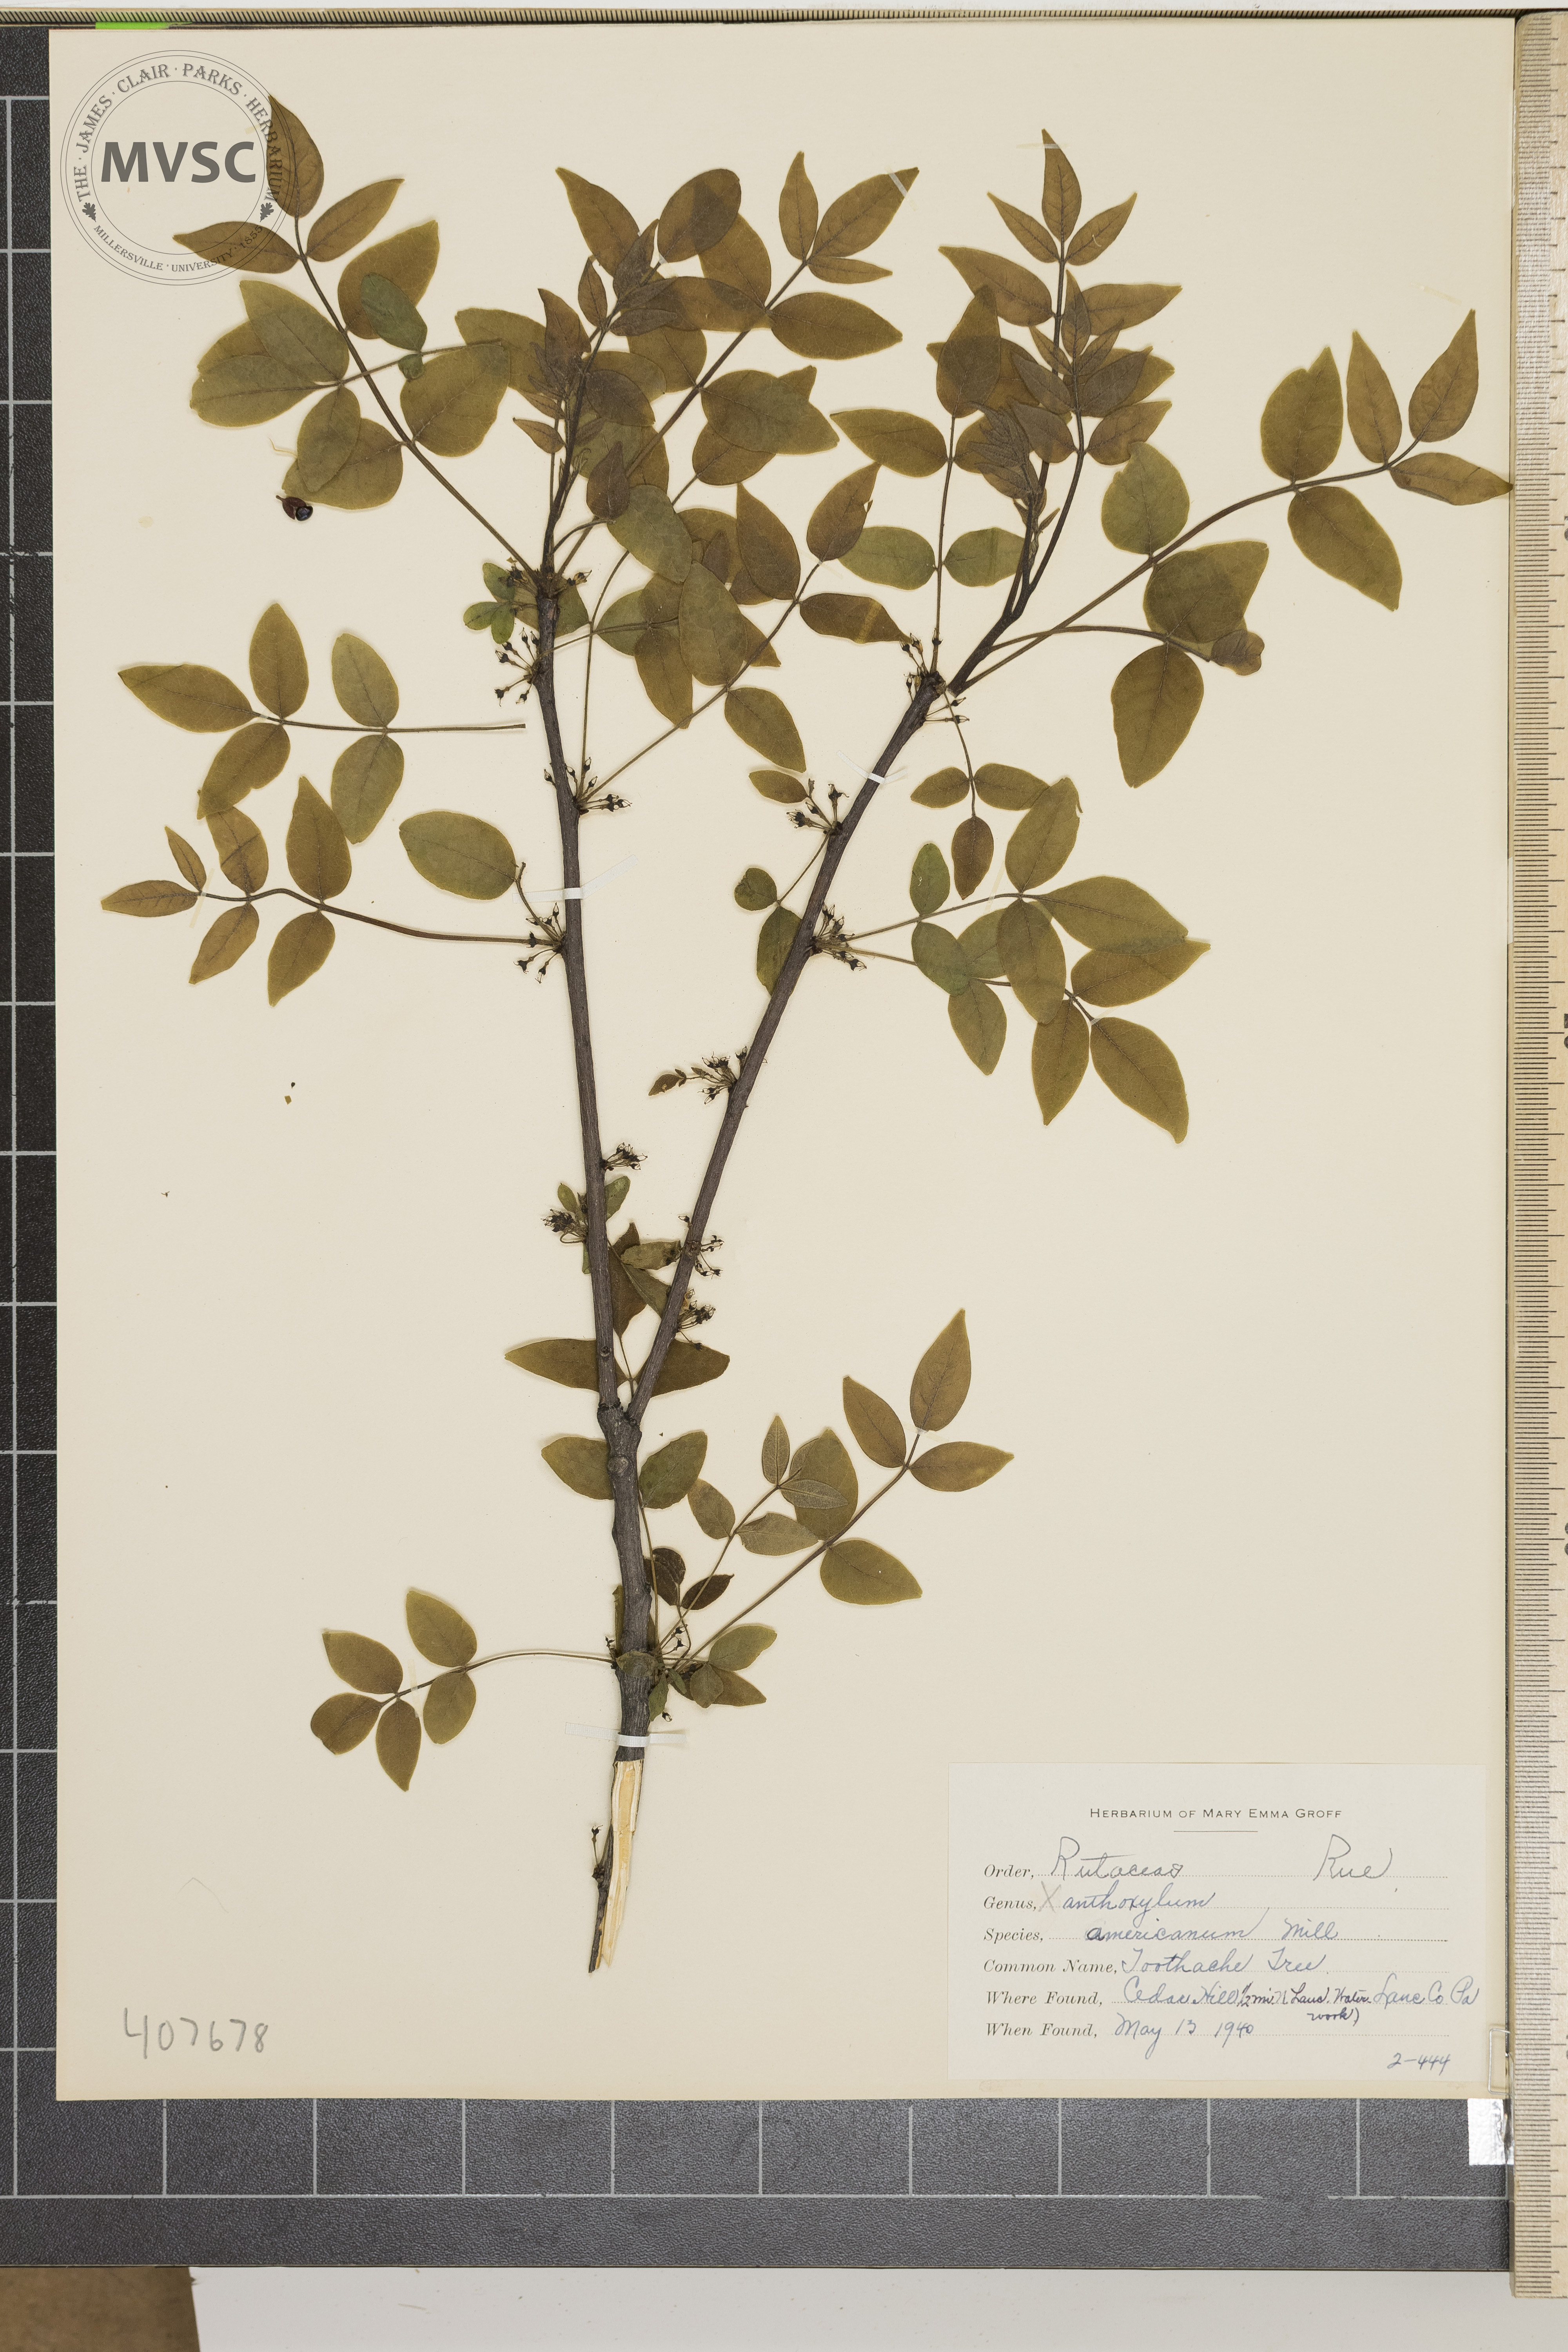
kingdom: Plantae
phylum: Tracheophyta
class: Magnoliopsida
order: Sapindales
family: Rutaceae
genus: Zanthoxylum
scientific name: Zanthoxylum americanum
